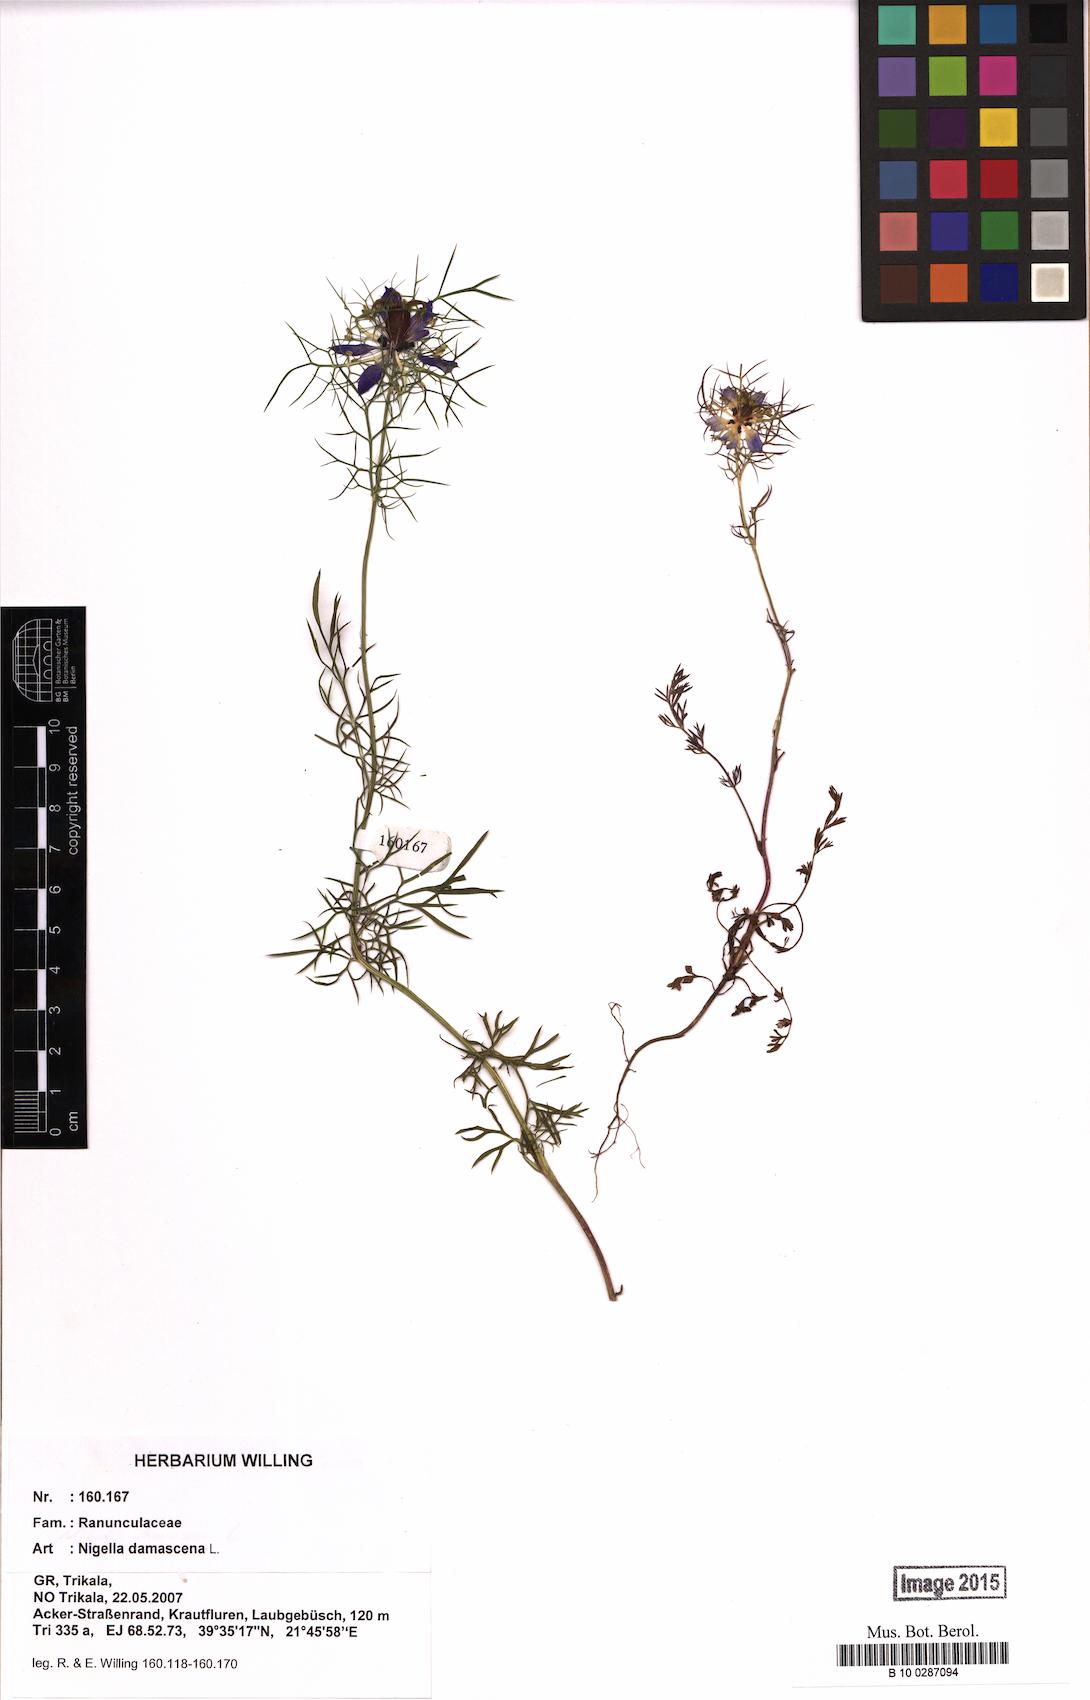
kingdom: Plantae
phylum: Tracheophyta
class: Magnoliopsida
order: Ranunculales
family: Ranunculaceae
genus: Nigella
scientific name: Nigella damascena
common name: Love-in-a-mist
